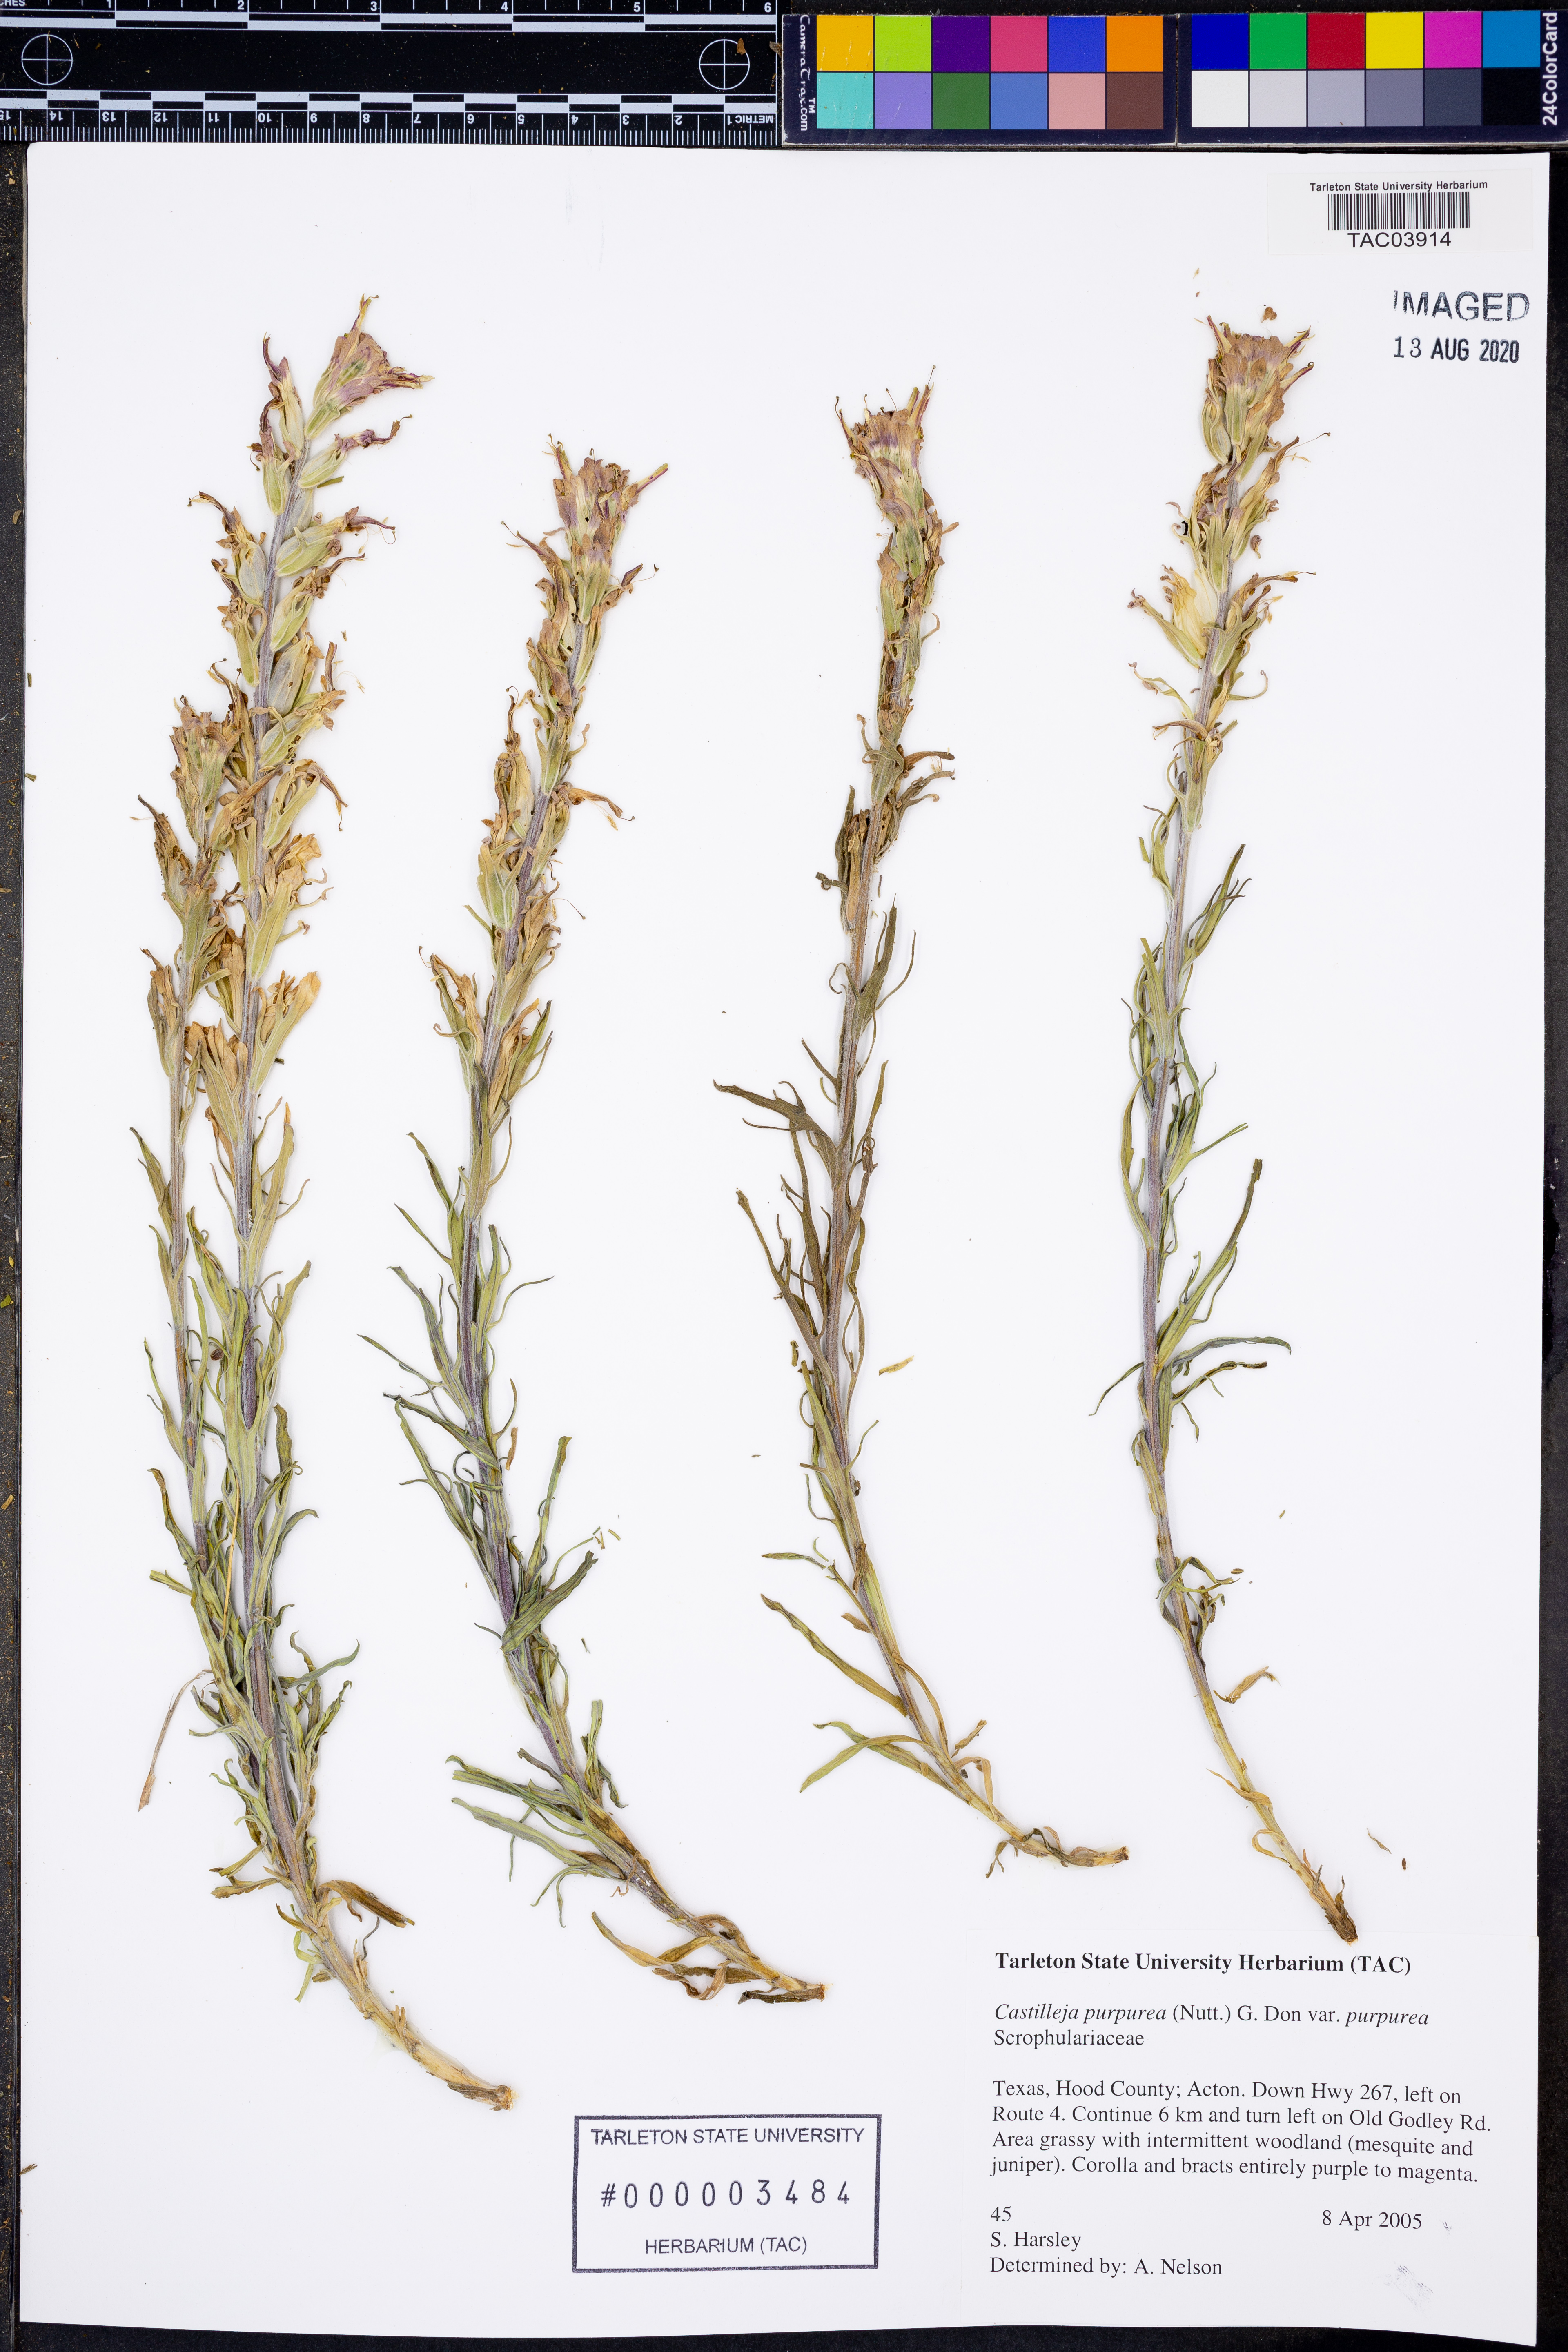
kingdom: Plantae
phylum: Tracheophyta
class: Magnoliopsida
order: Lamiales
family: Orobanchaceae
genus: Castilleja
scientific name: Castilleja purpurea
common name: Plains paintbrush
